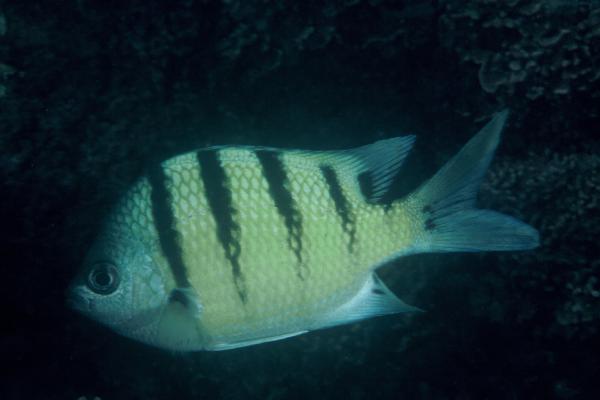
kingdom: Animalia
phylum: Chordata
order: Perciformes
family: Pomacentridae
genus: Abudefduf
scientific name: Abudefduf abdominalis
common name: Green damselfish
